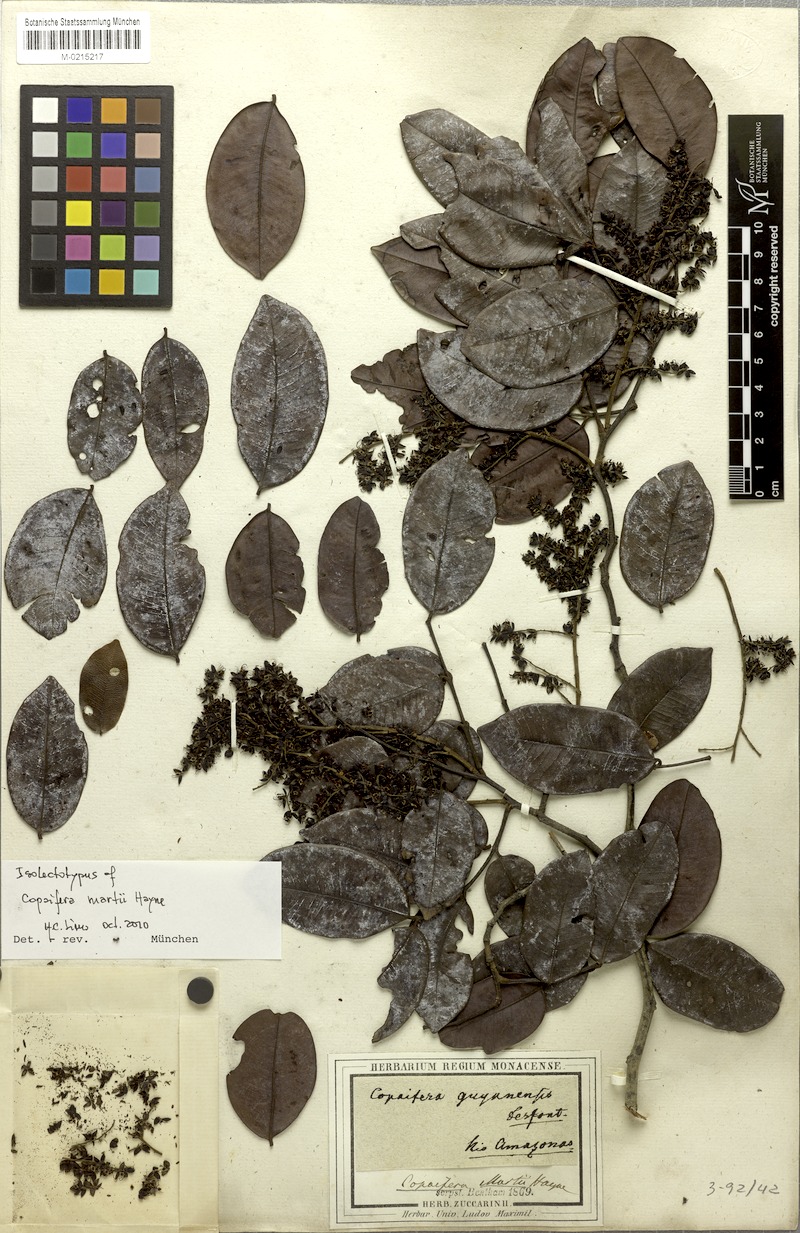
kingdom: Plantae
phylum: Tracheophyta
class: Magnoliopsida
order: Fabales
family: Fabaceae
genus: Copaifera
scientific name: Copaifera martii
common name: Copaiba
